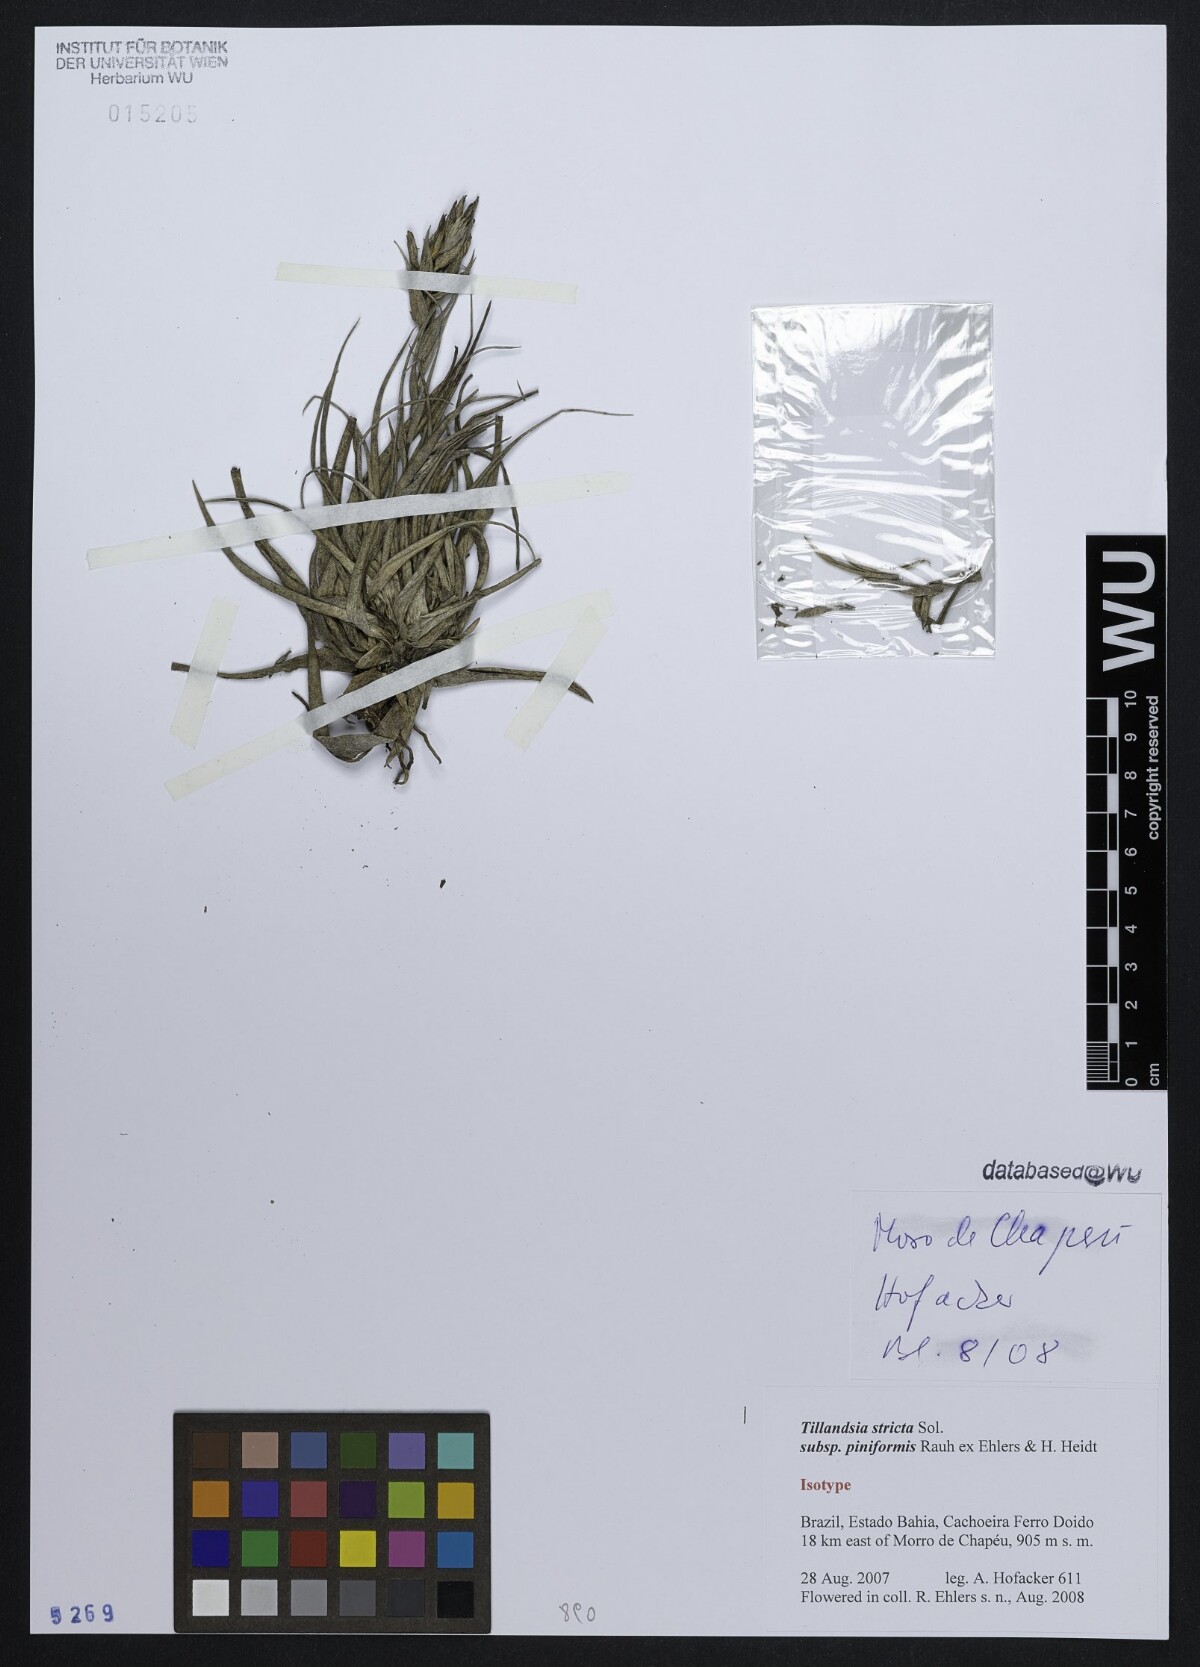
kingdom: Plantae
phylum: Tracheophyta
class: Liliopsida
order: Poales
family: Bromeliaceae
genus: Tillandsia
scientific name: Tillandsia stricta
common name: Airplant
